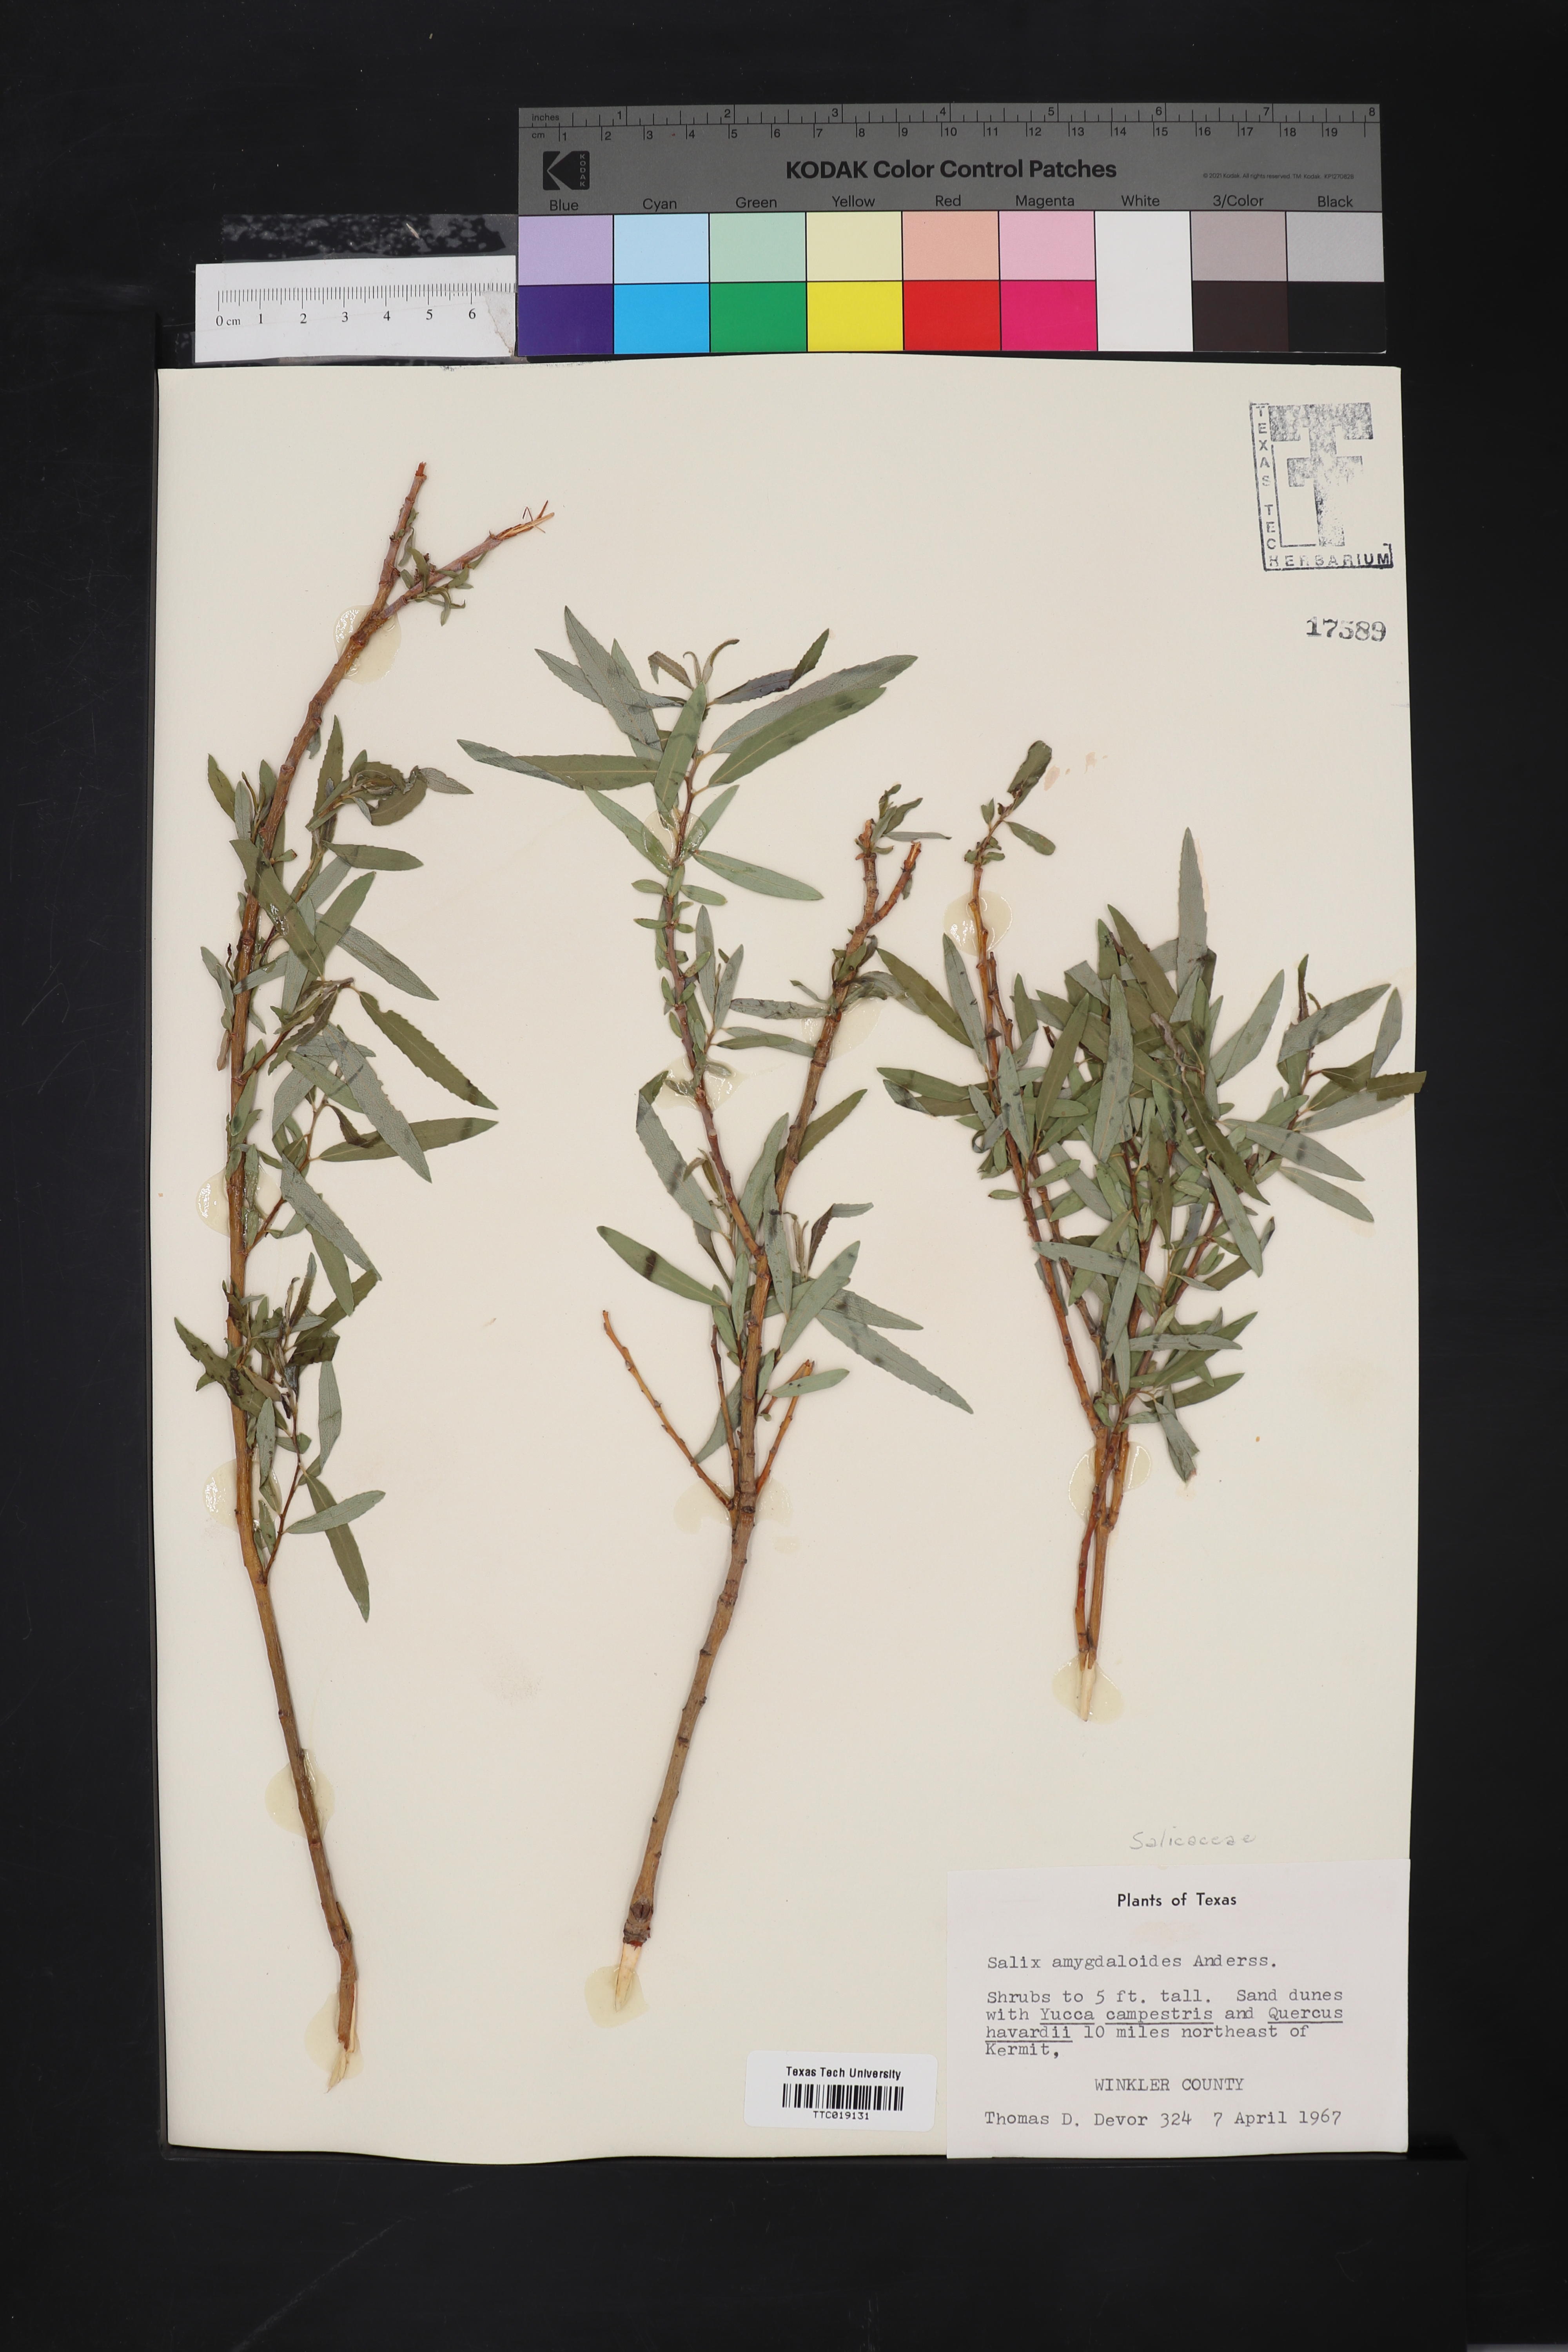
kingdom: Plantae
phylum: Tracheophyta
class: Magnoliopsida
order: Malpighiales
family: Salicaceae
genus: Salix
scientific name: Salix amygdaloides
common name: Peach leaf willow
